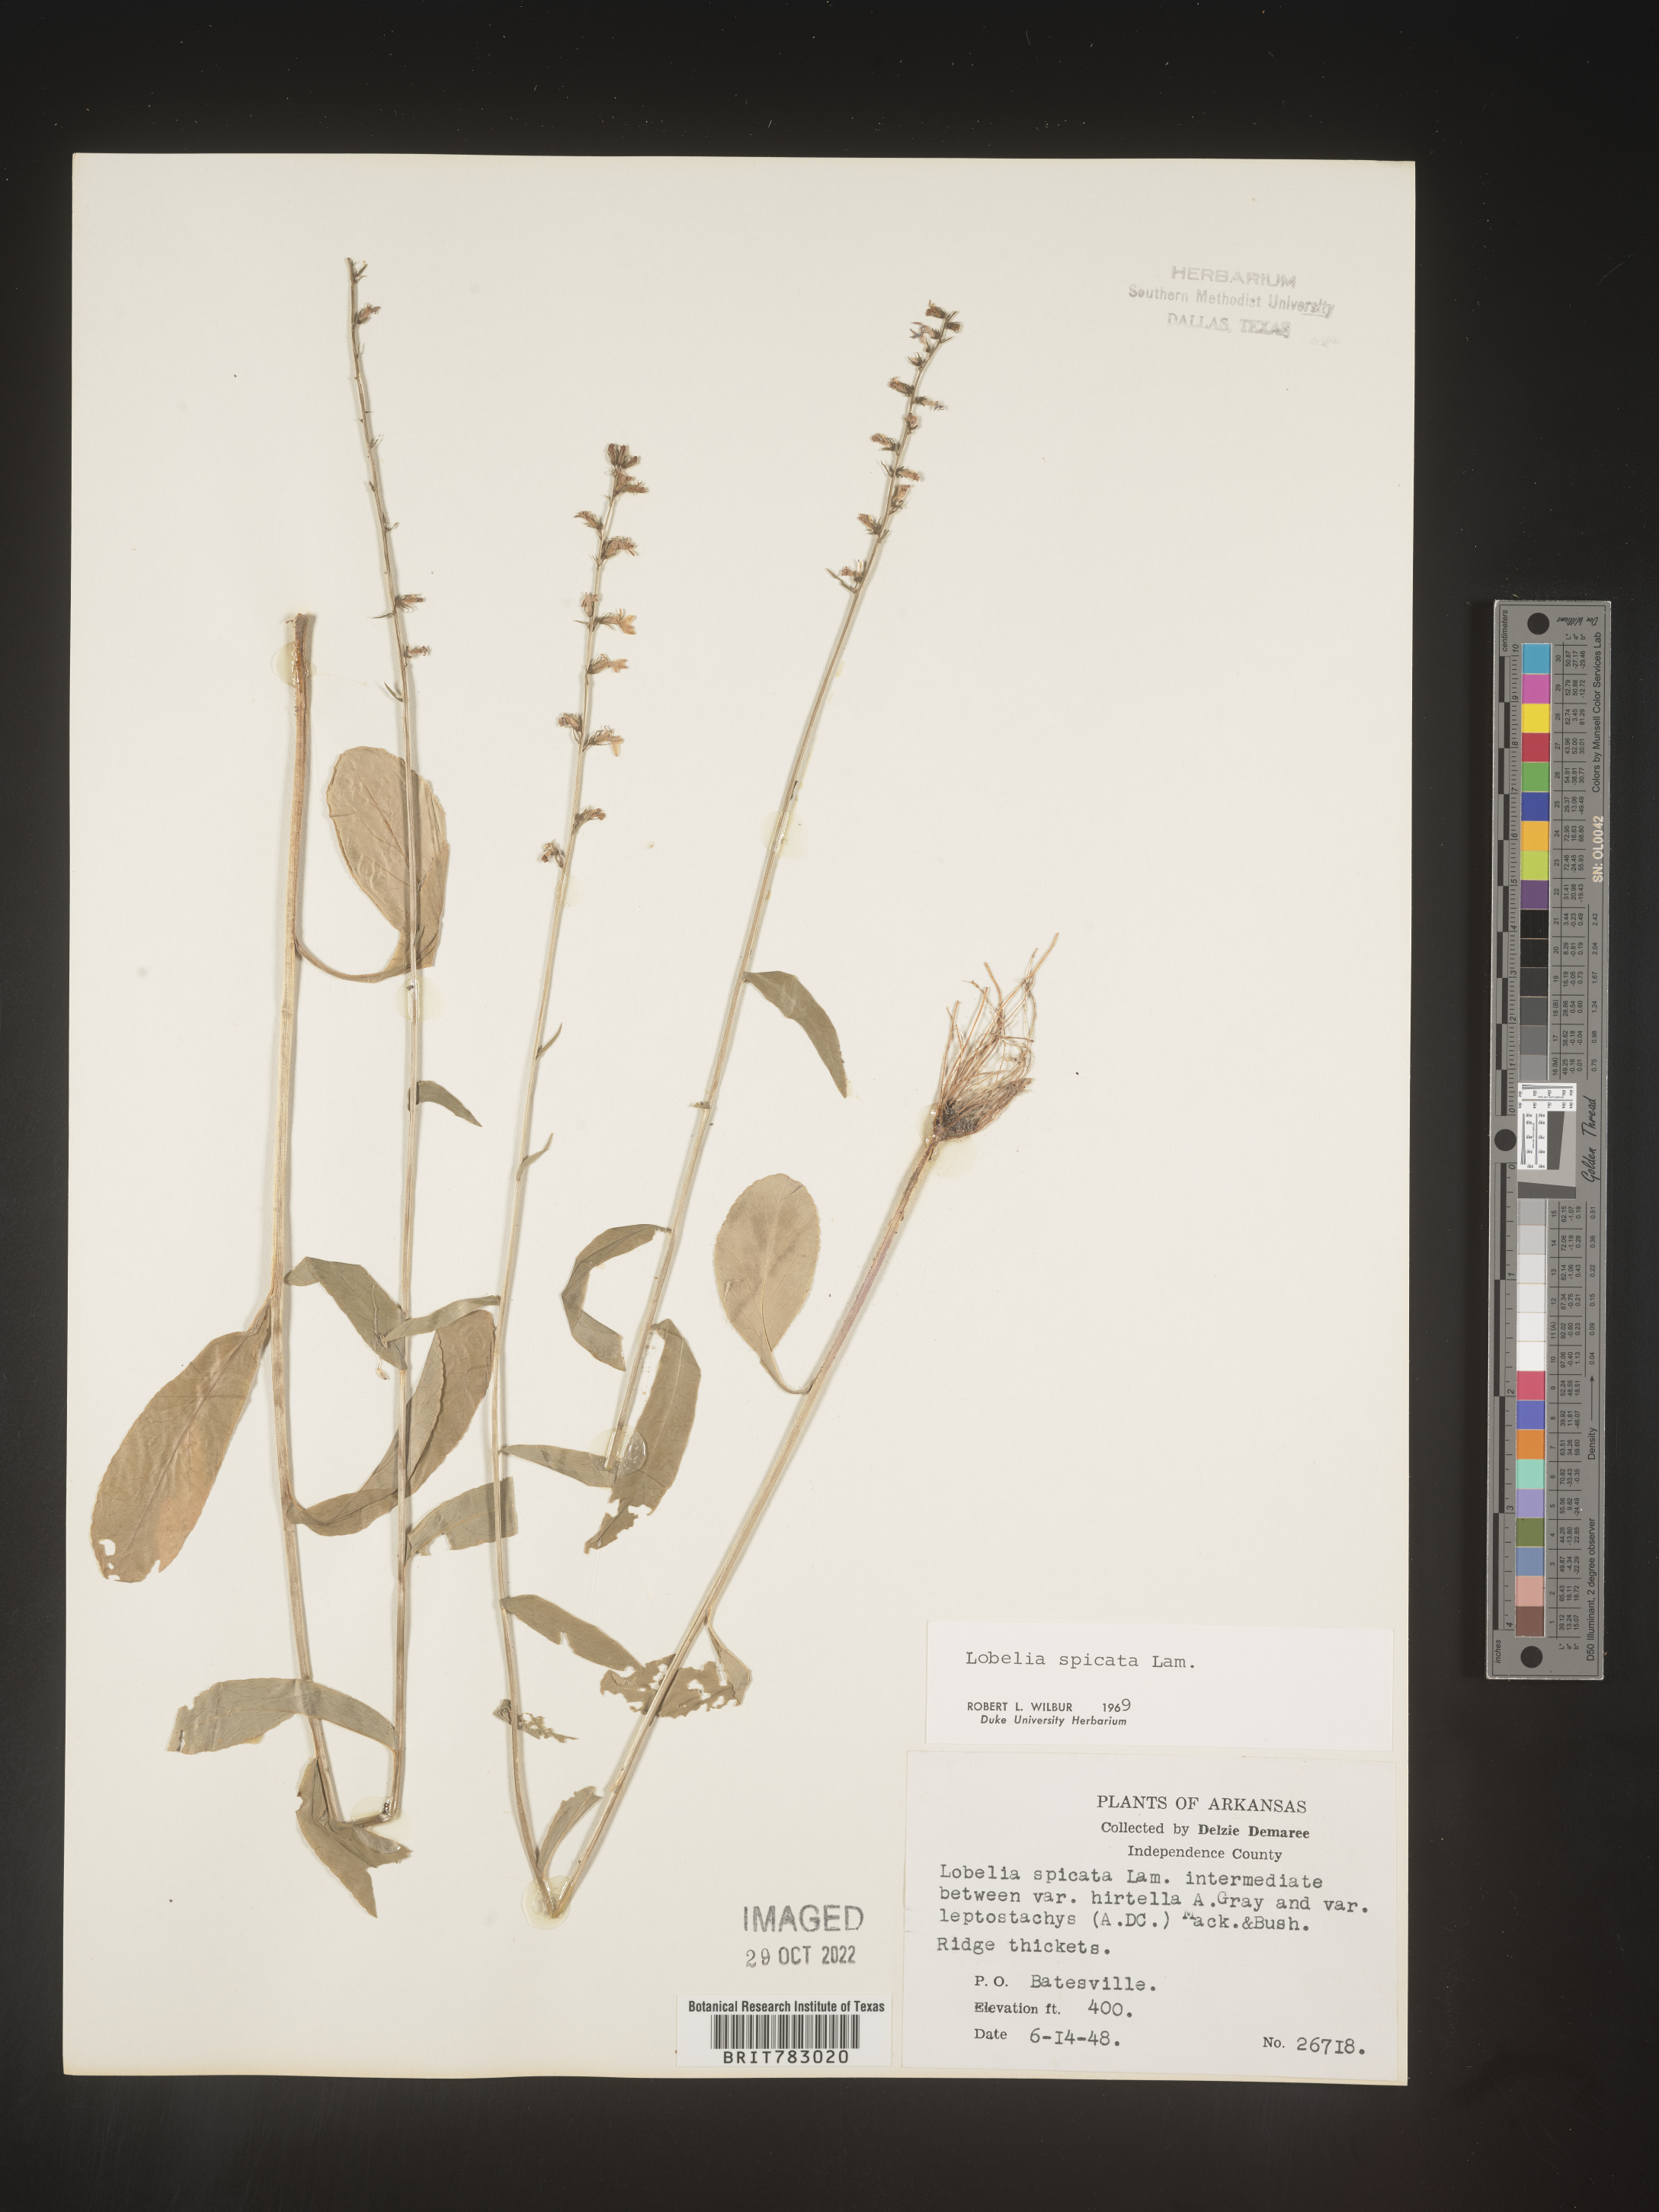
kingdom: Plantae
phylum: Tracheophyta
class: Magnoliopsida
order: Asterales
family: Campanulaceae
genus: Lobelia
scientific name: Lobelia spicata
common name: Pale-spike lobelia
